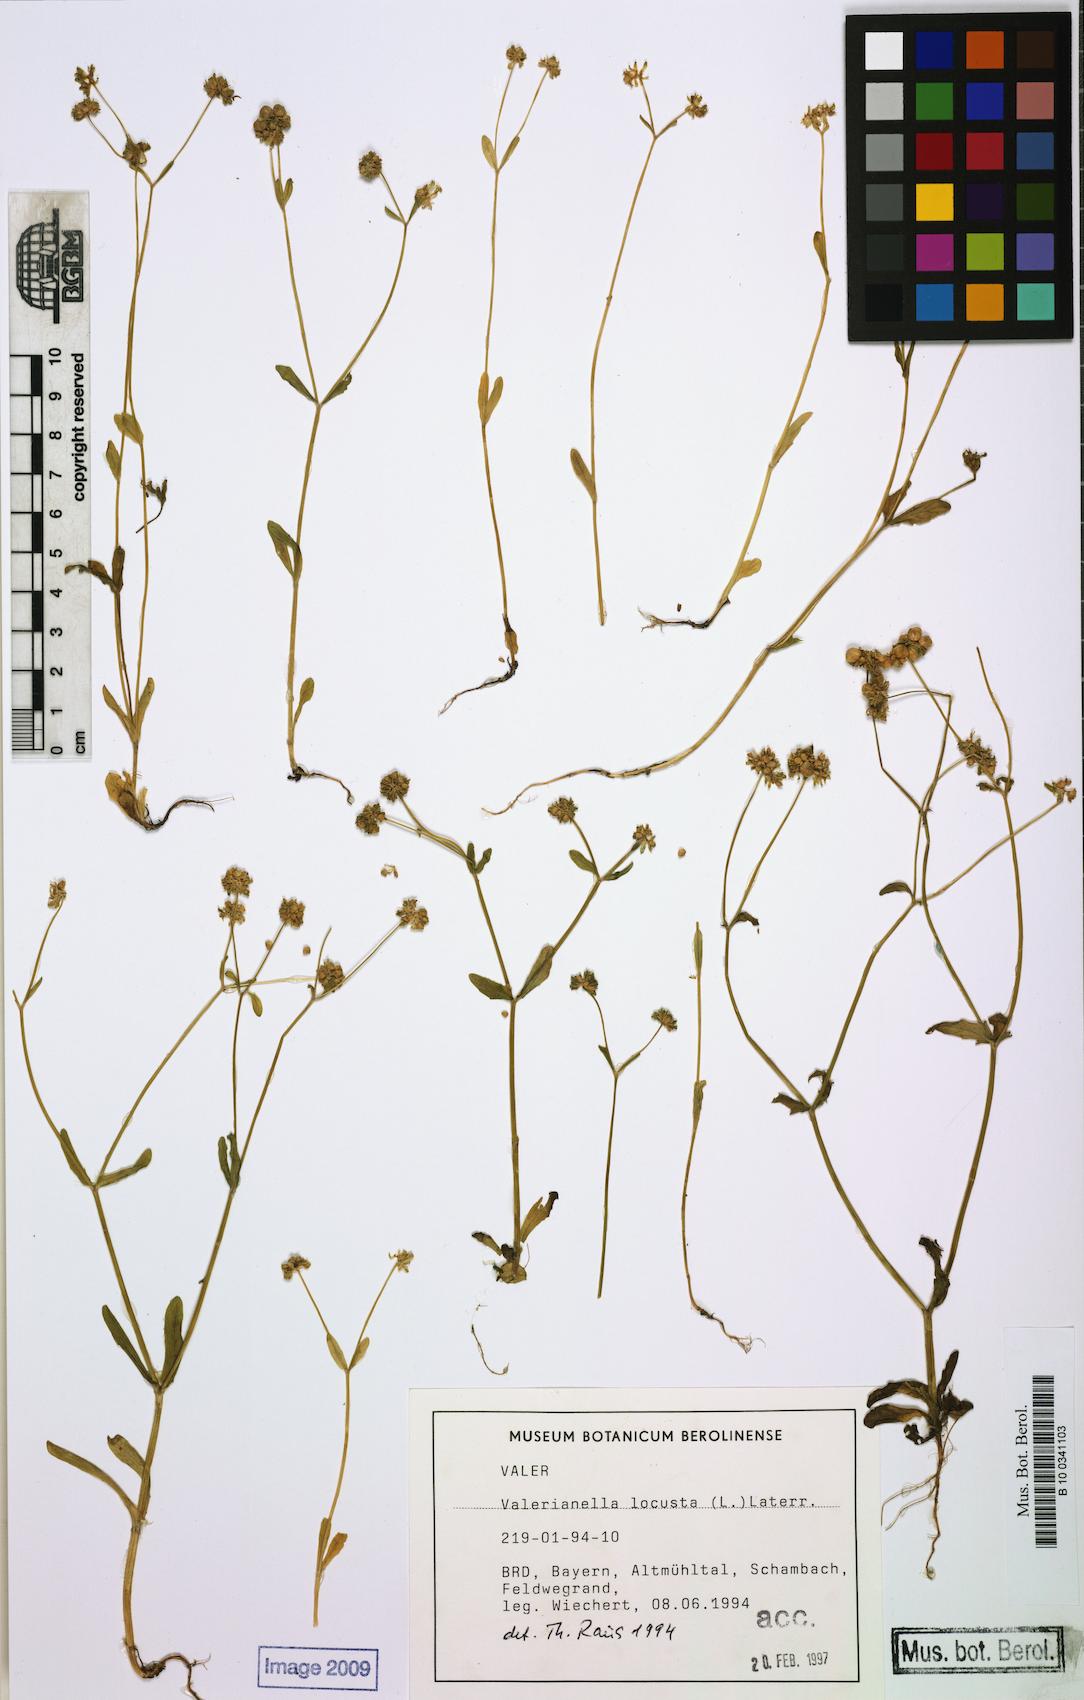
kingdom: Plantae
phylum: Tracheophyta
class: Magnoliopsida
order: Dipsacales
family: Caprifoliaceae
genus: Valerianella
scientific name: Valerianella locusta
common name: Common cornsalad
